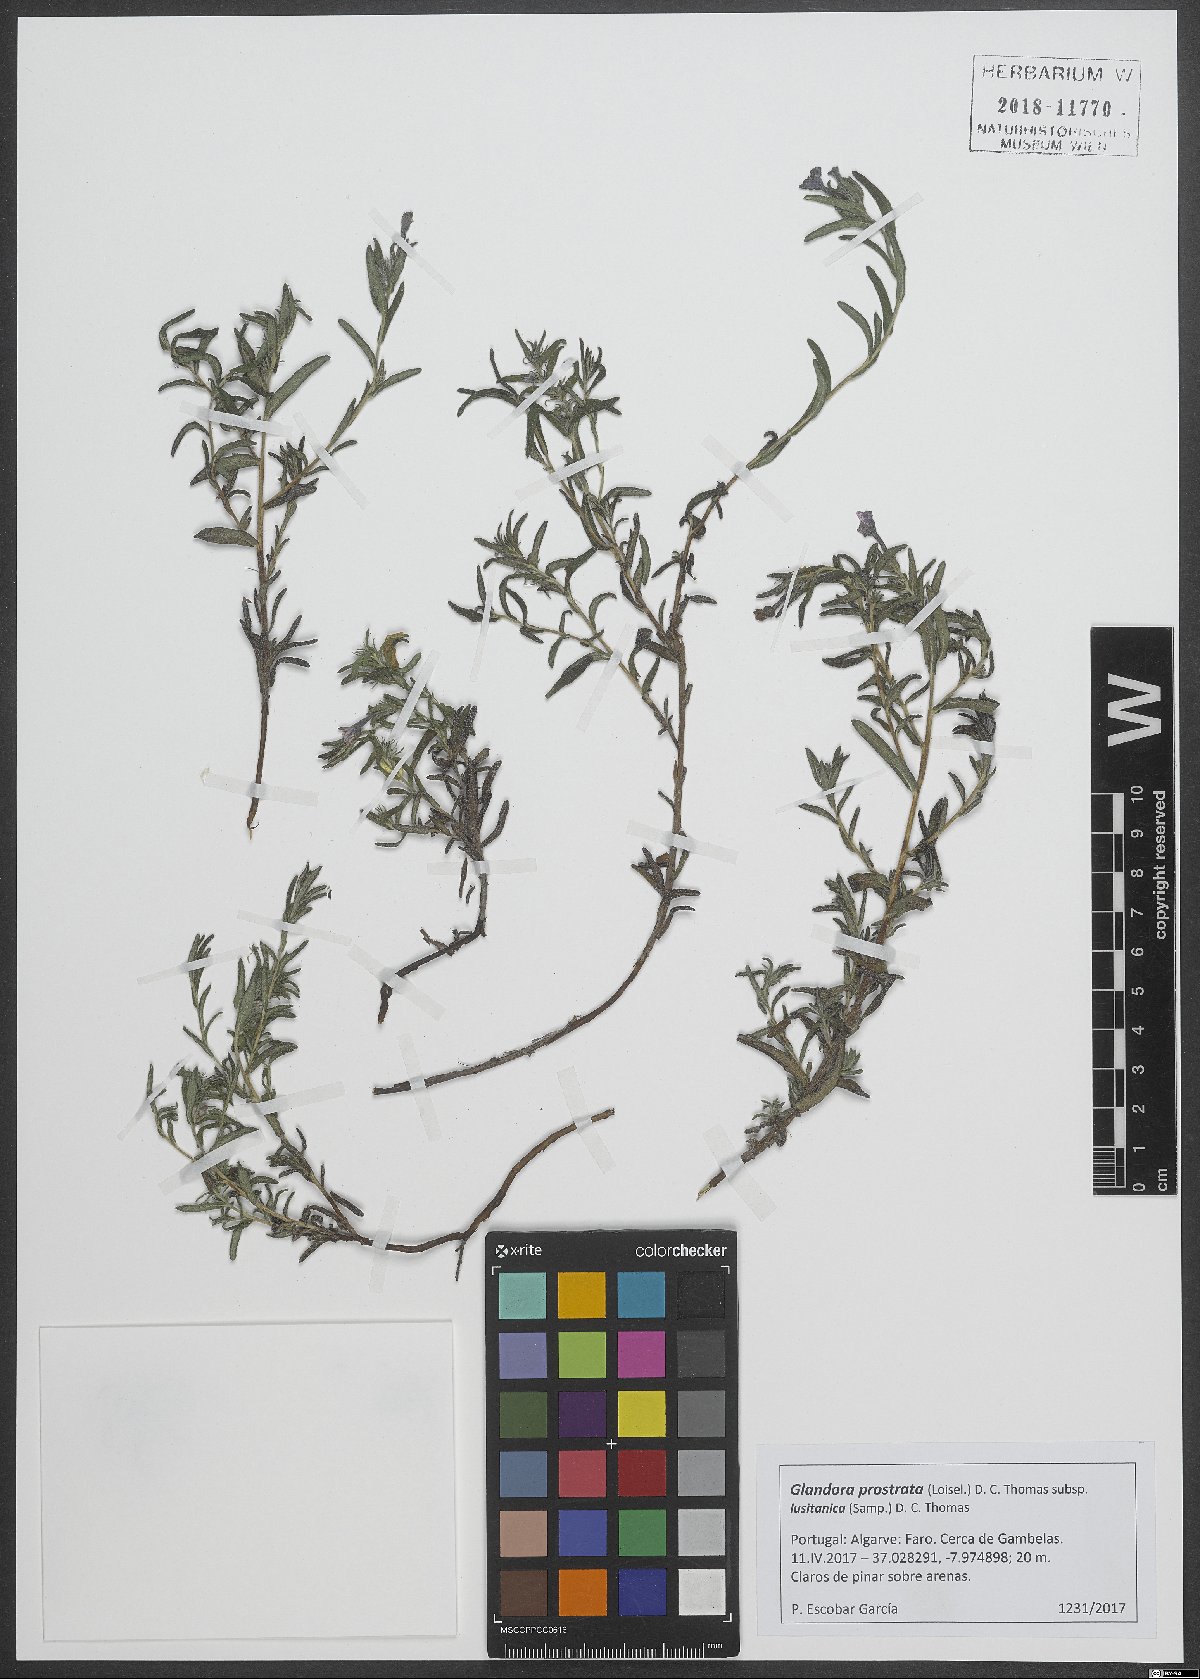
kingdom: Plantae
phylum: Tracheophyta
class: Magnoliopsida
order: Boraginales
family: Boraginaceae
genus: Glandora
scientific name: Glandora prostrata
